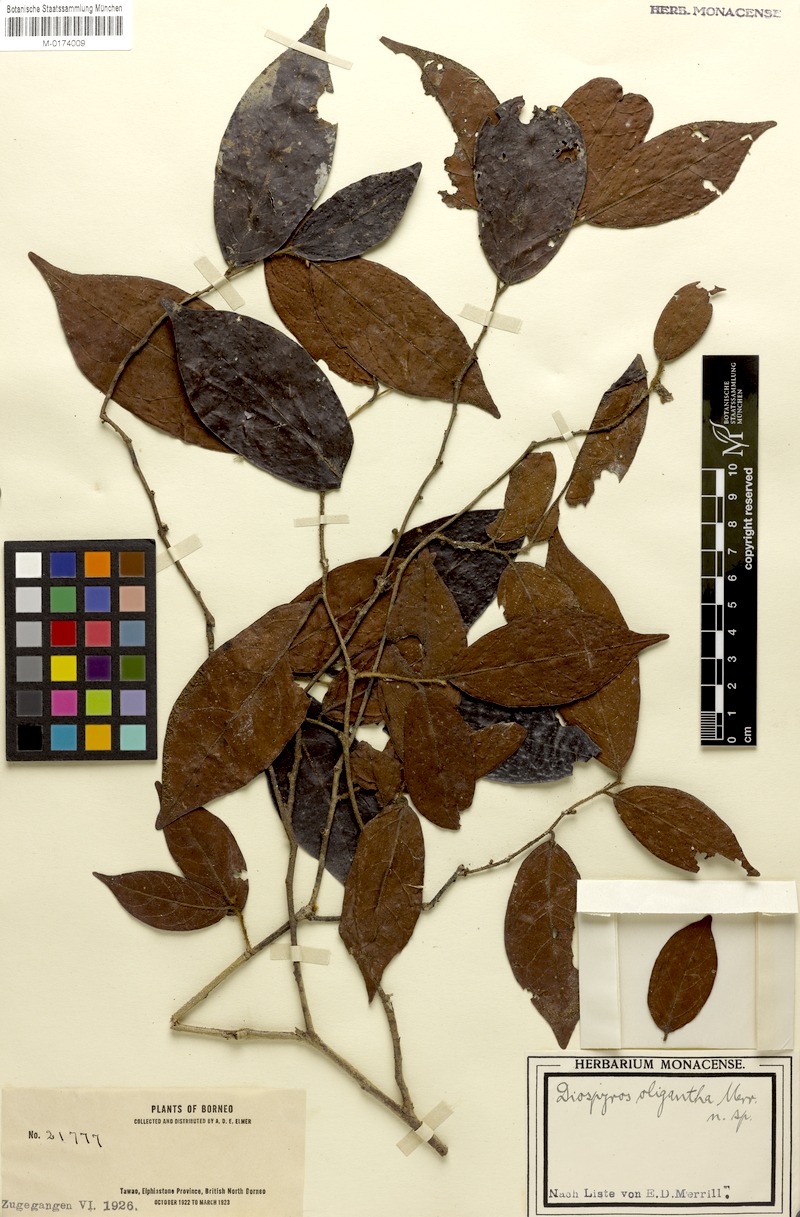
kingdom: Plantae
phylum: Tracheophyta
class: Magnoliopsida
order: Ericales
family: Ebenaceae
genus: Diospyros
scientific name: Diospyros oligantha
